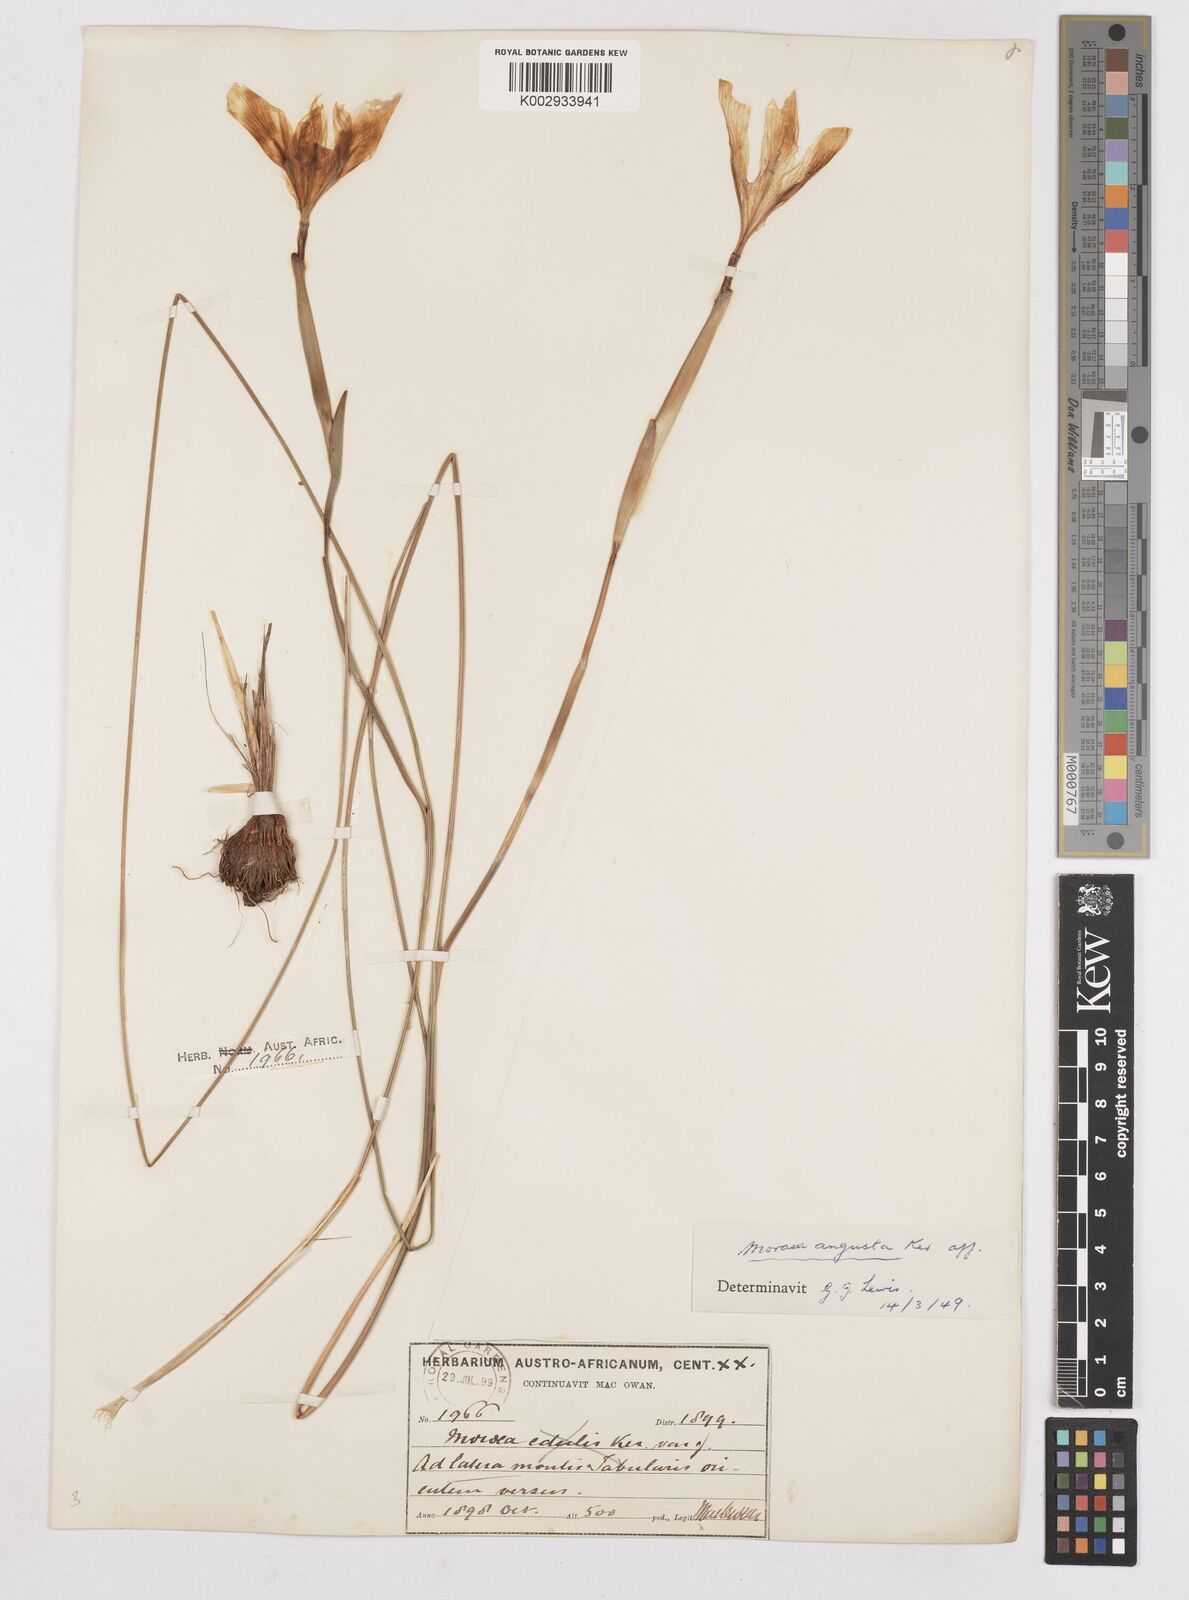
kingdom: Plantae
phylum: Tracheophyta
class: Liliopsida
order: Asparagales
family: Iridaceae
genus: Moraea
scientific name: Moraea angusta
